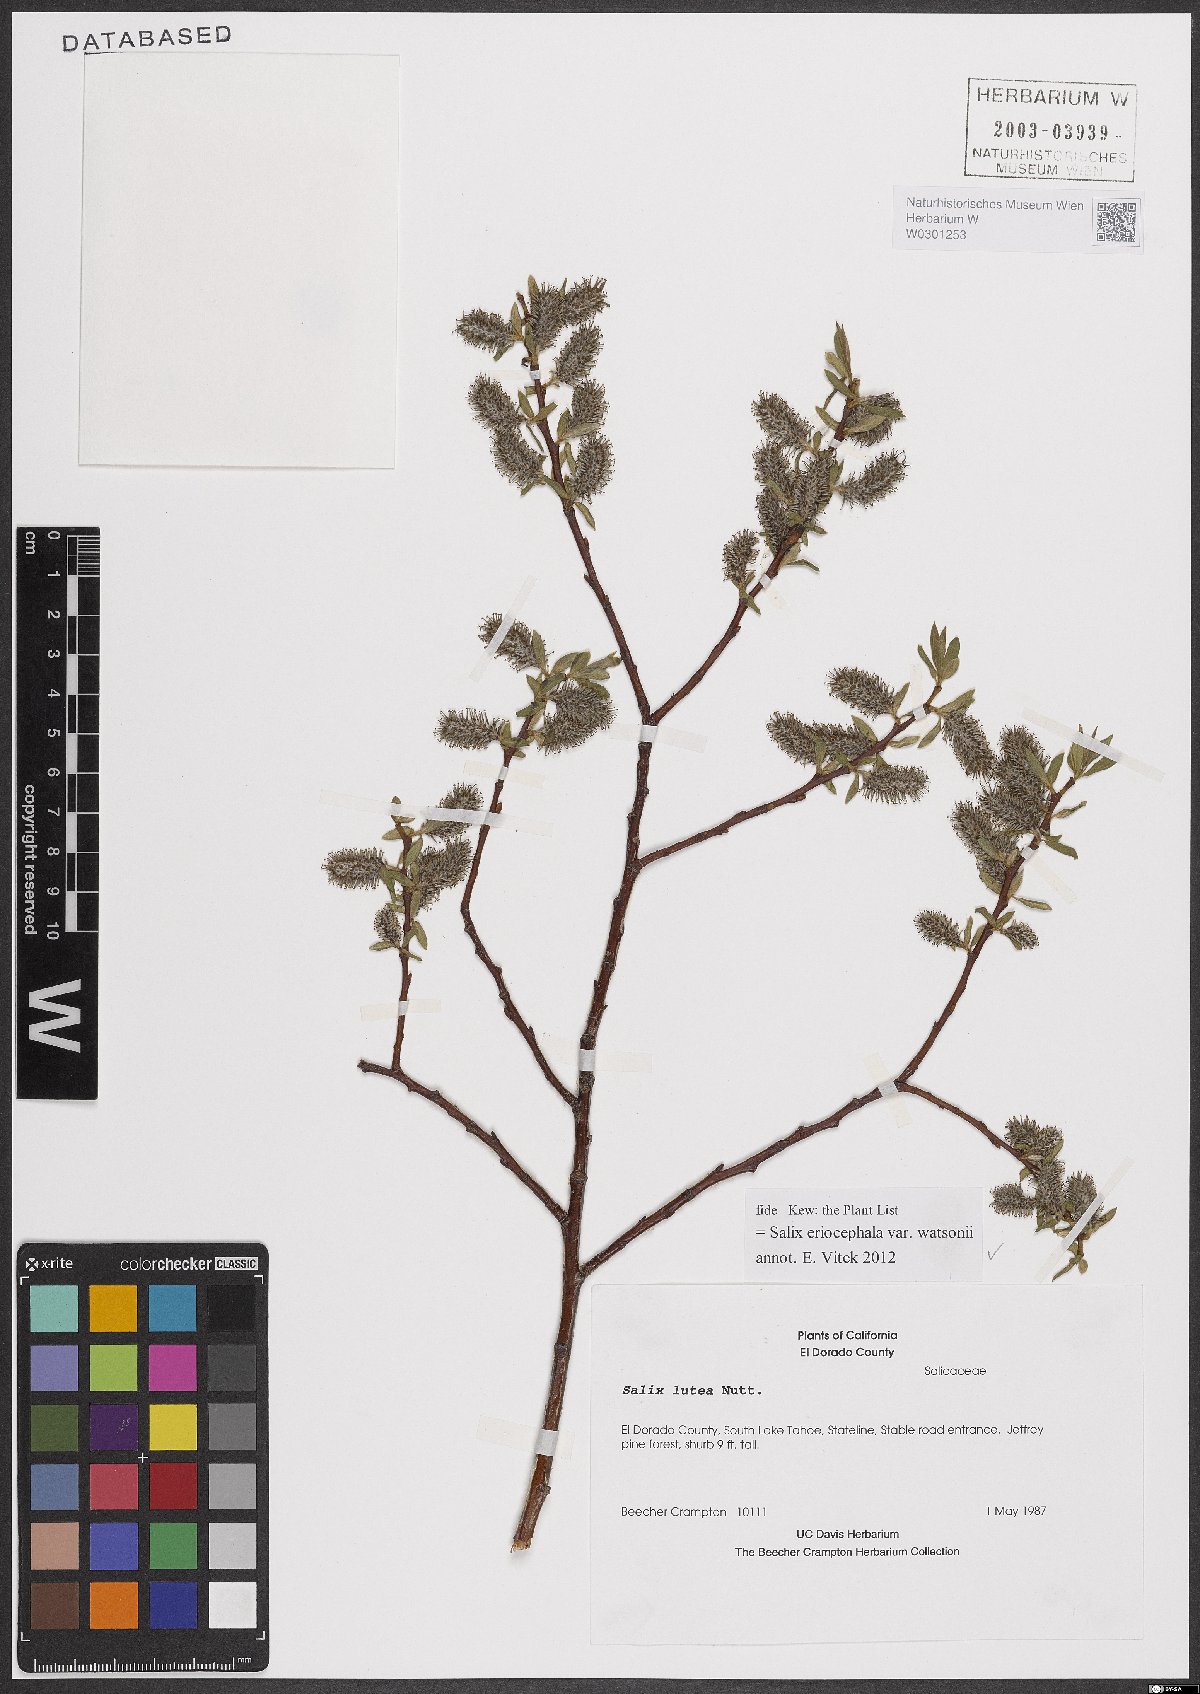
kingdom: Plantae
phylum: Tracheophyta
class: Magnoliopsida
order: Malpighiales
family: Salicaceae
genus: Salix
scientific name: Salix lutea
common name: Yellow willow
